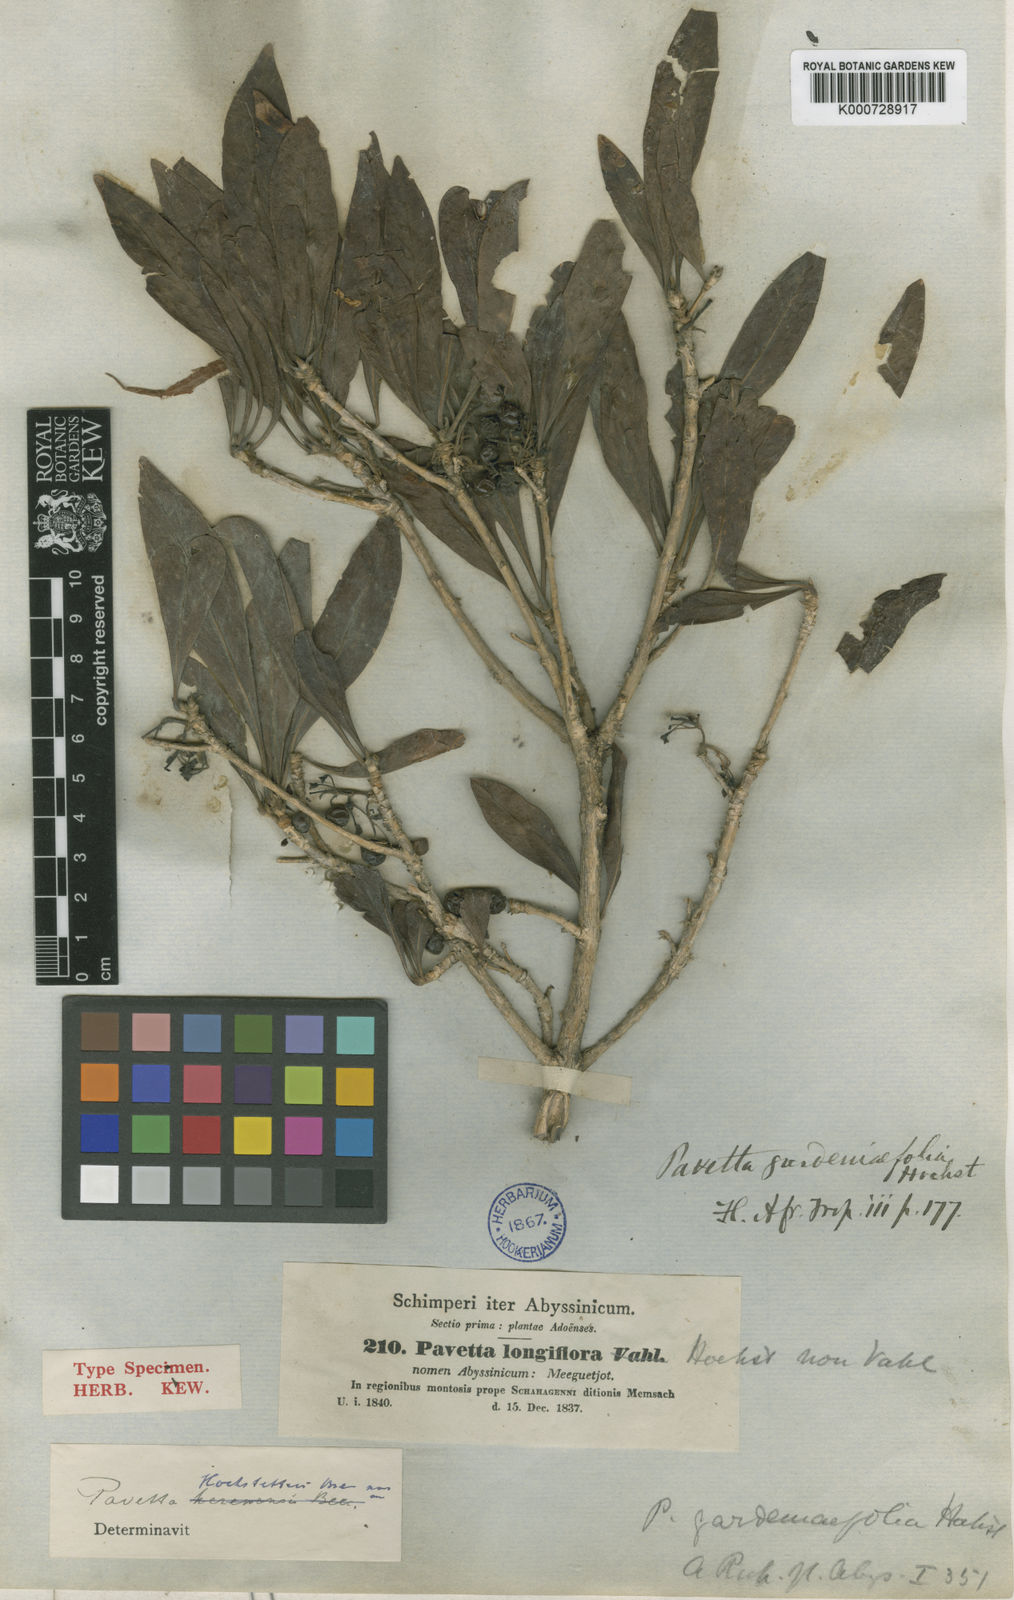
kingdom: Plantae
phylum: Tracheophyta
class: Magnoliopsida
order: Gentianales
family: Rubiaceae
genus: Pavetta
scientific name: Pavetta gardeniifolia
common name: Common brides-bush
